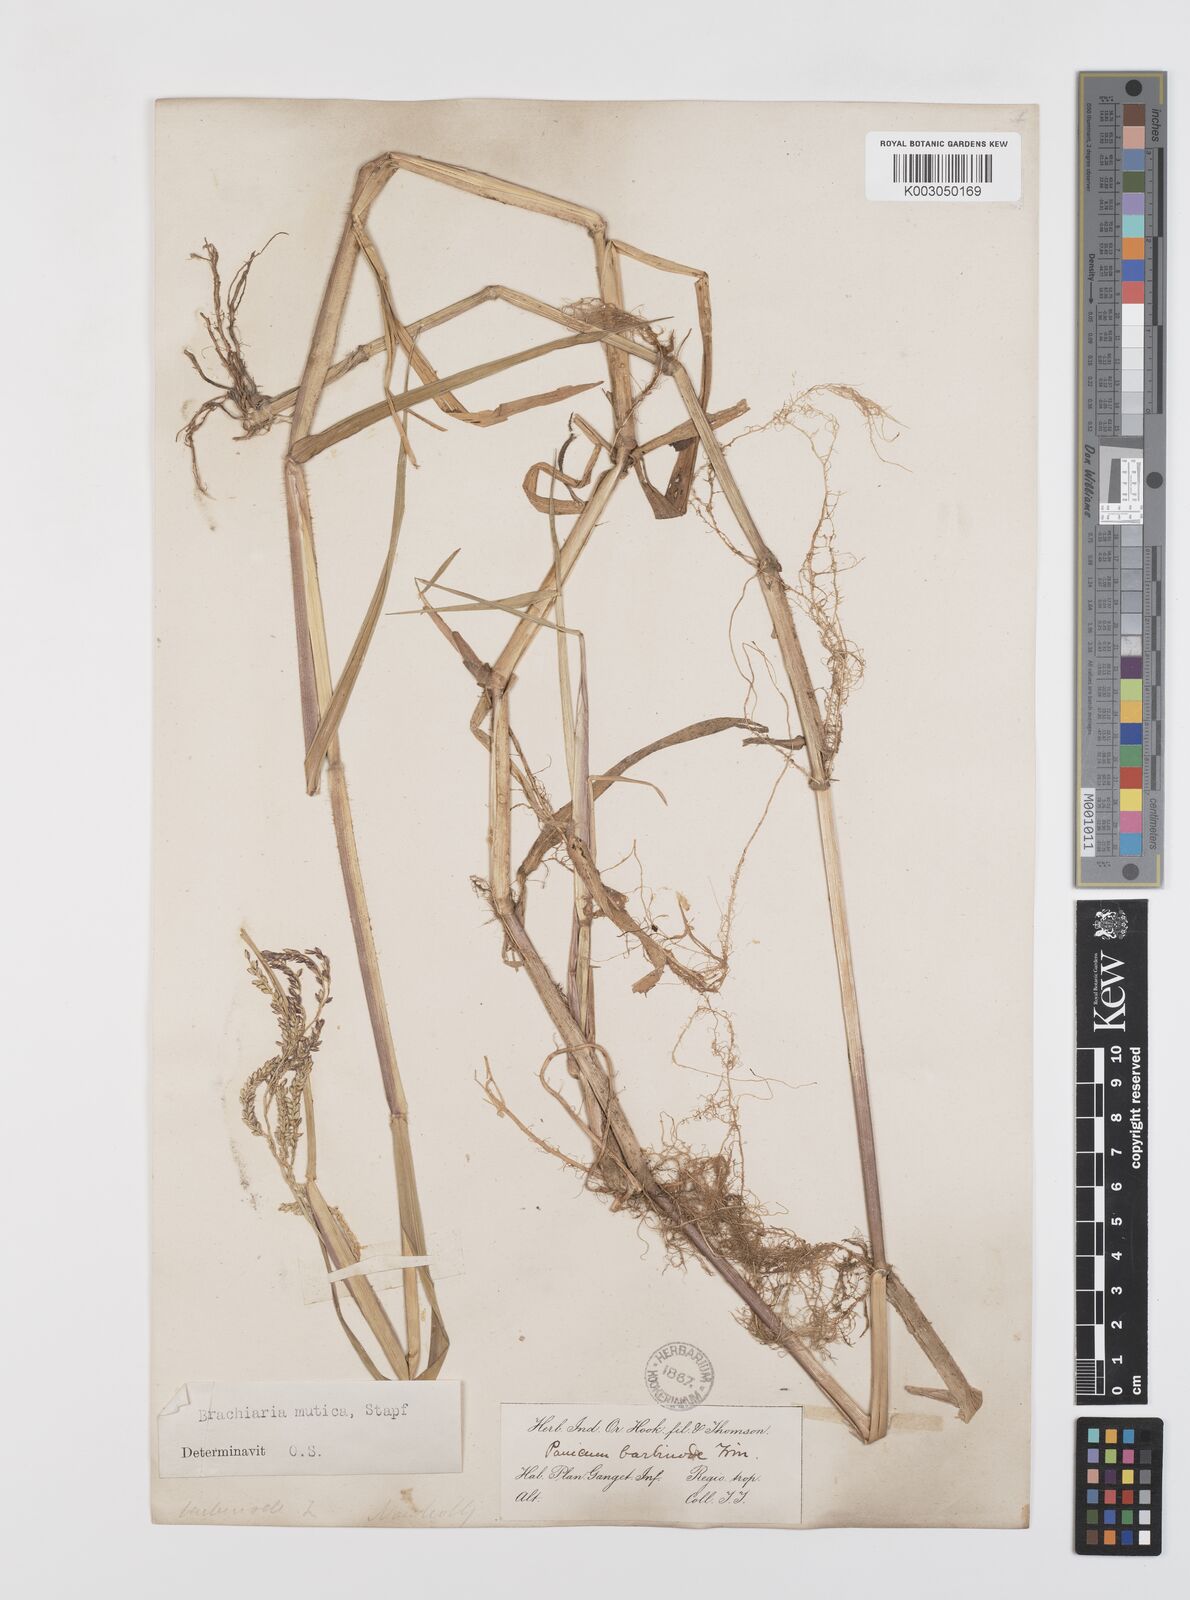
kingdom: Plantae
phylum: Tracheophyta
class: Liliopsida
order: Poales
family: Poaceae
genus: Urochloa
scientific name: Urochloa mutica
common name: Para grass
